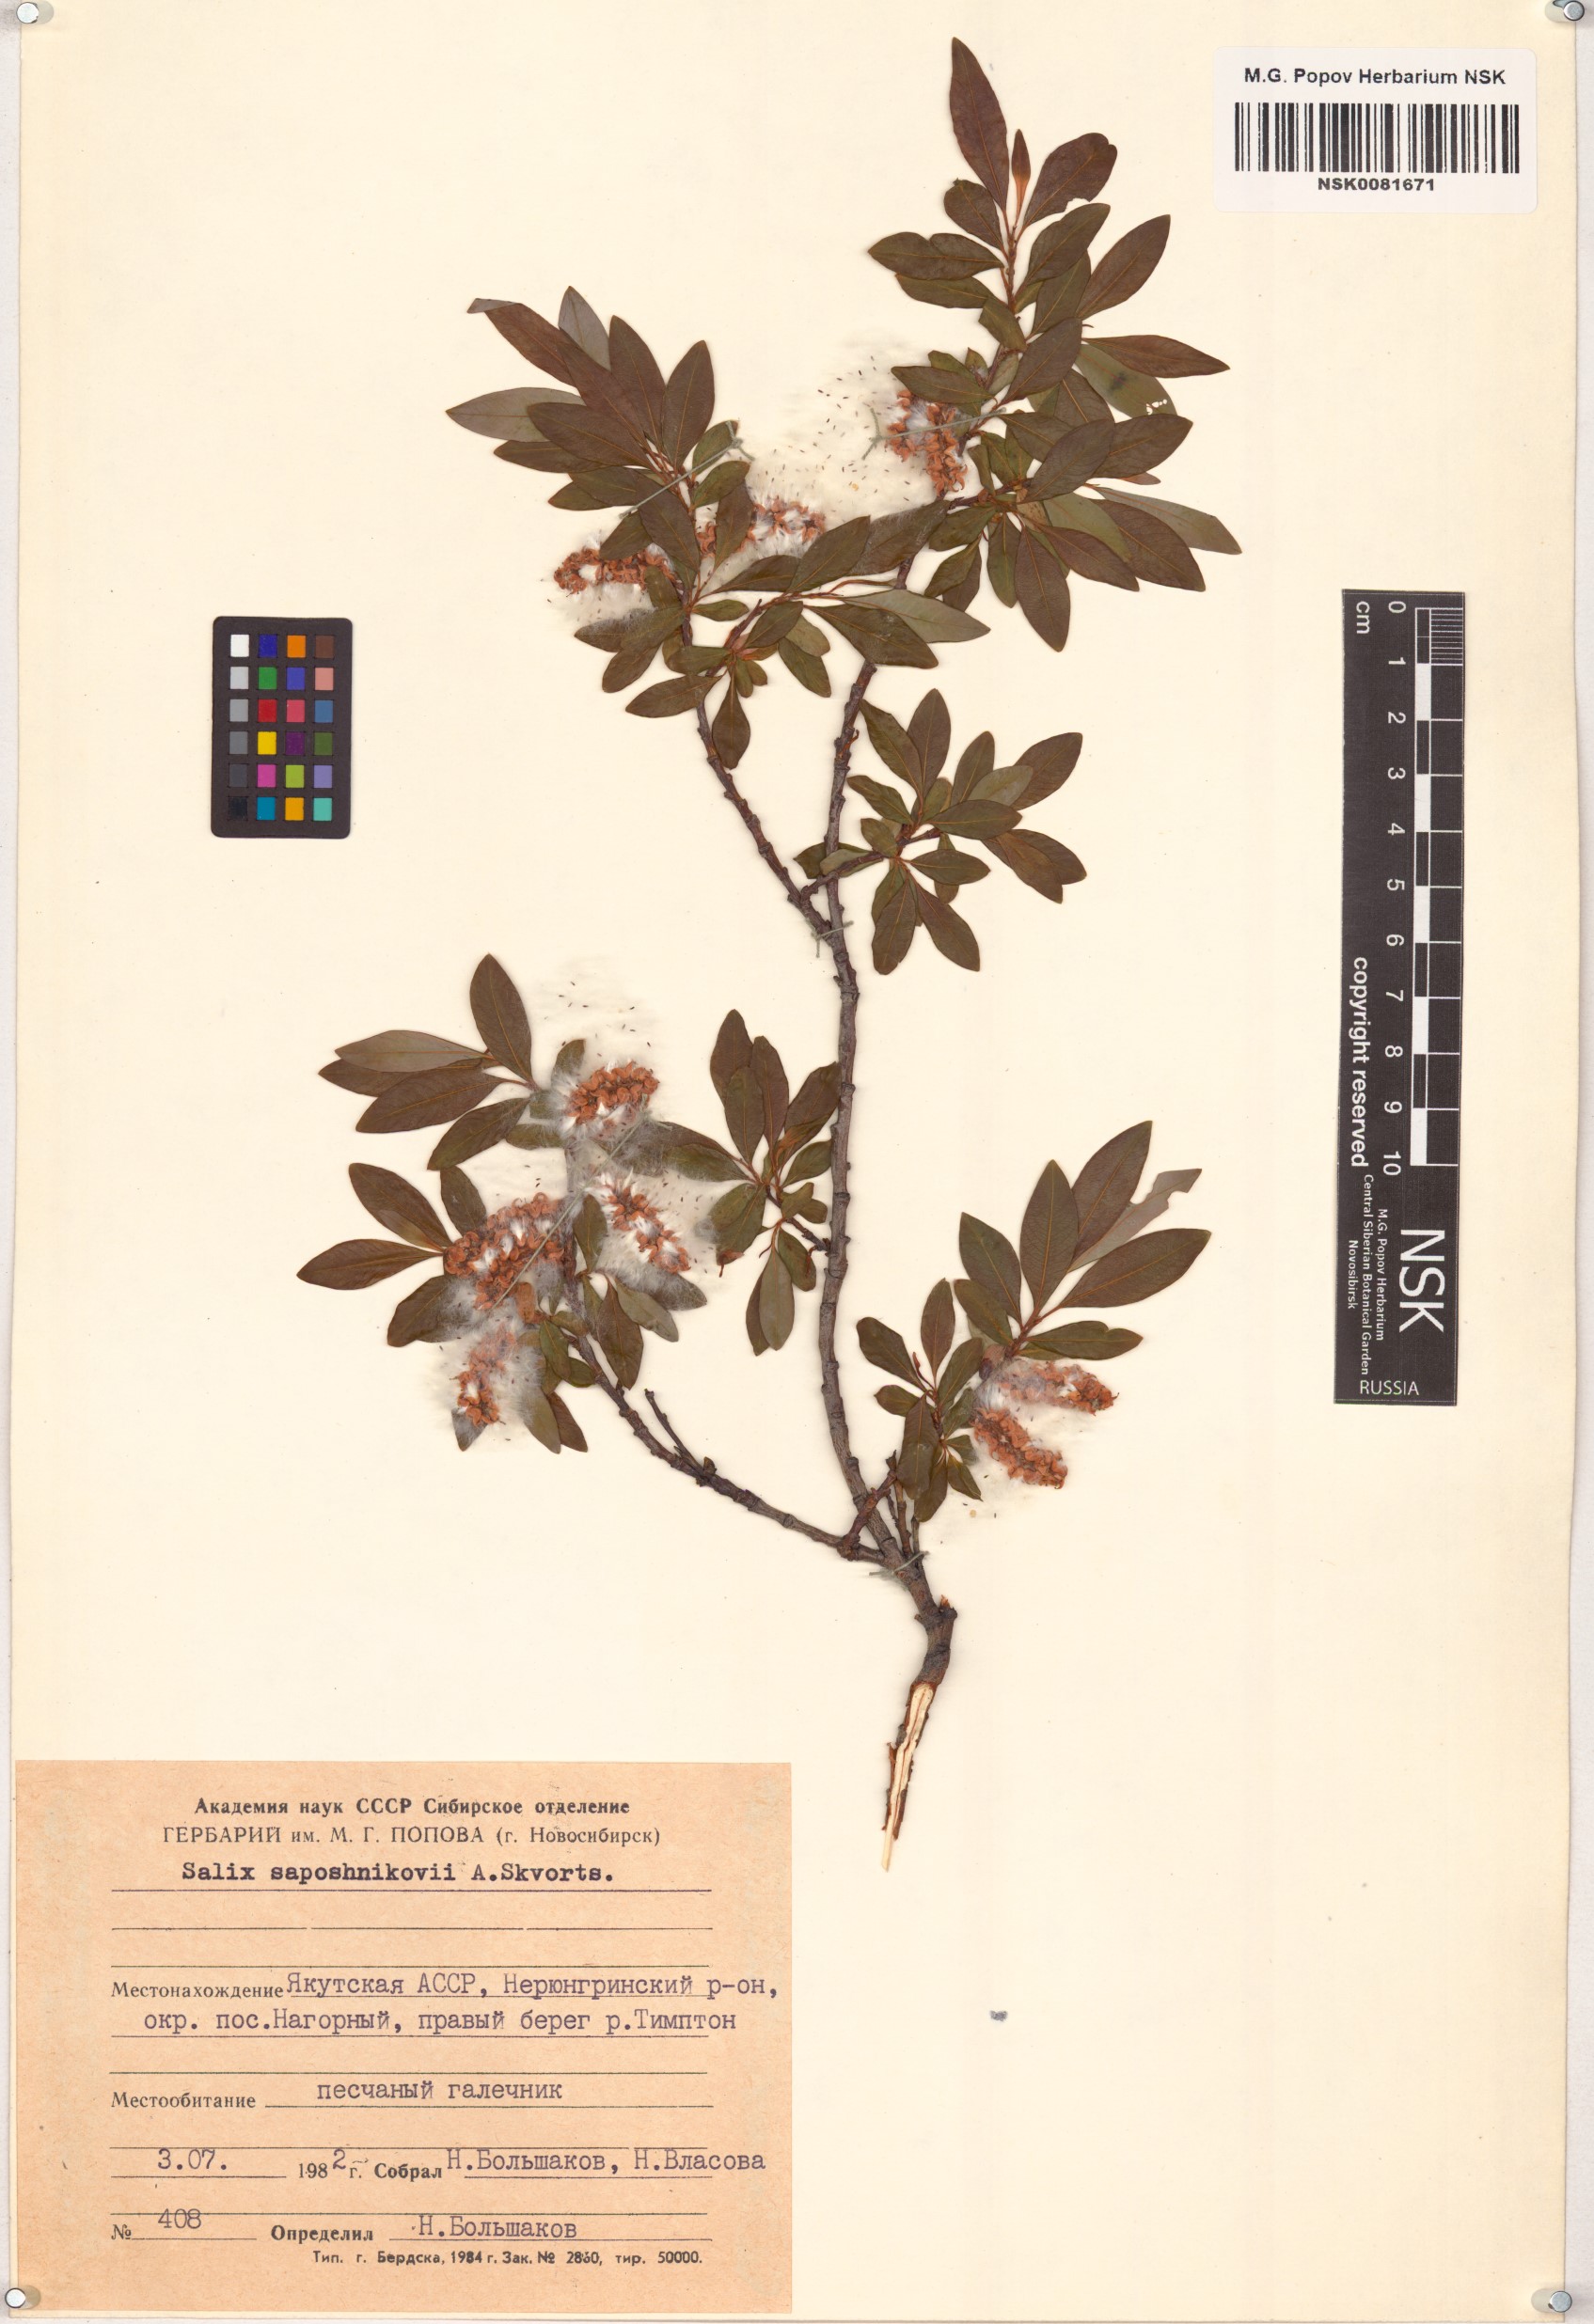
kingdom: Plantae
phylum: Tracheophyta
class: Magnoliopsida
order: Malpighiales
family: Salicaceae
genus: Salix
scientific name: Salix saposhnikovii
